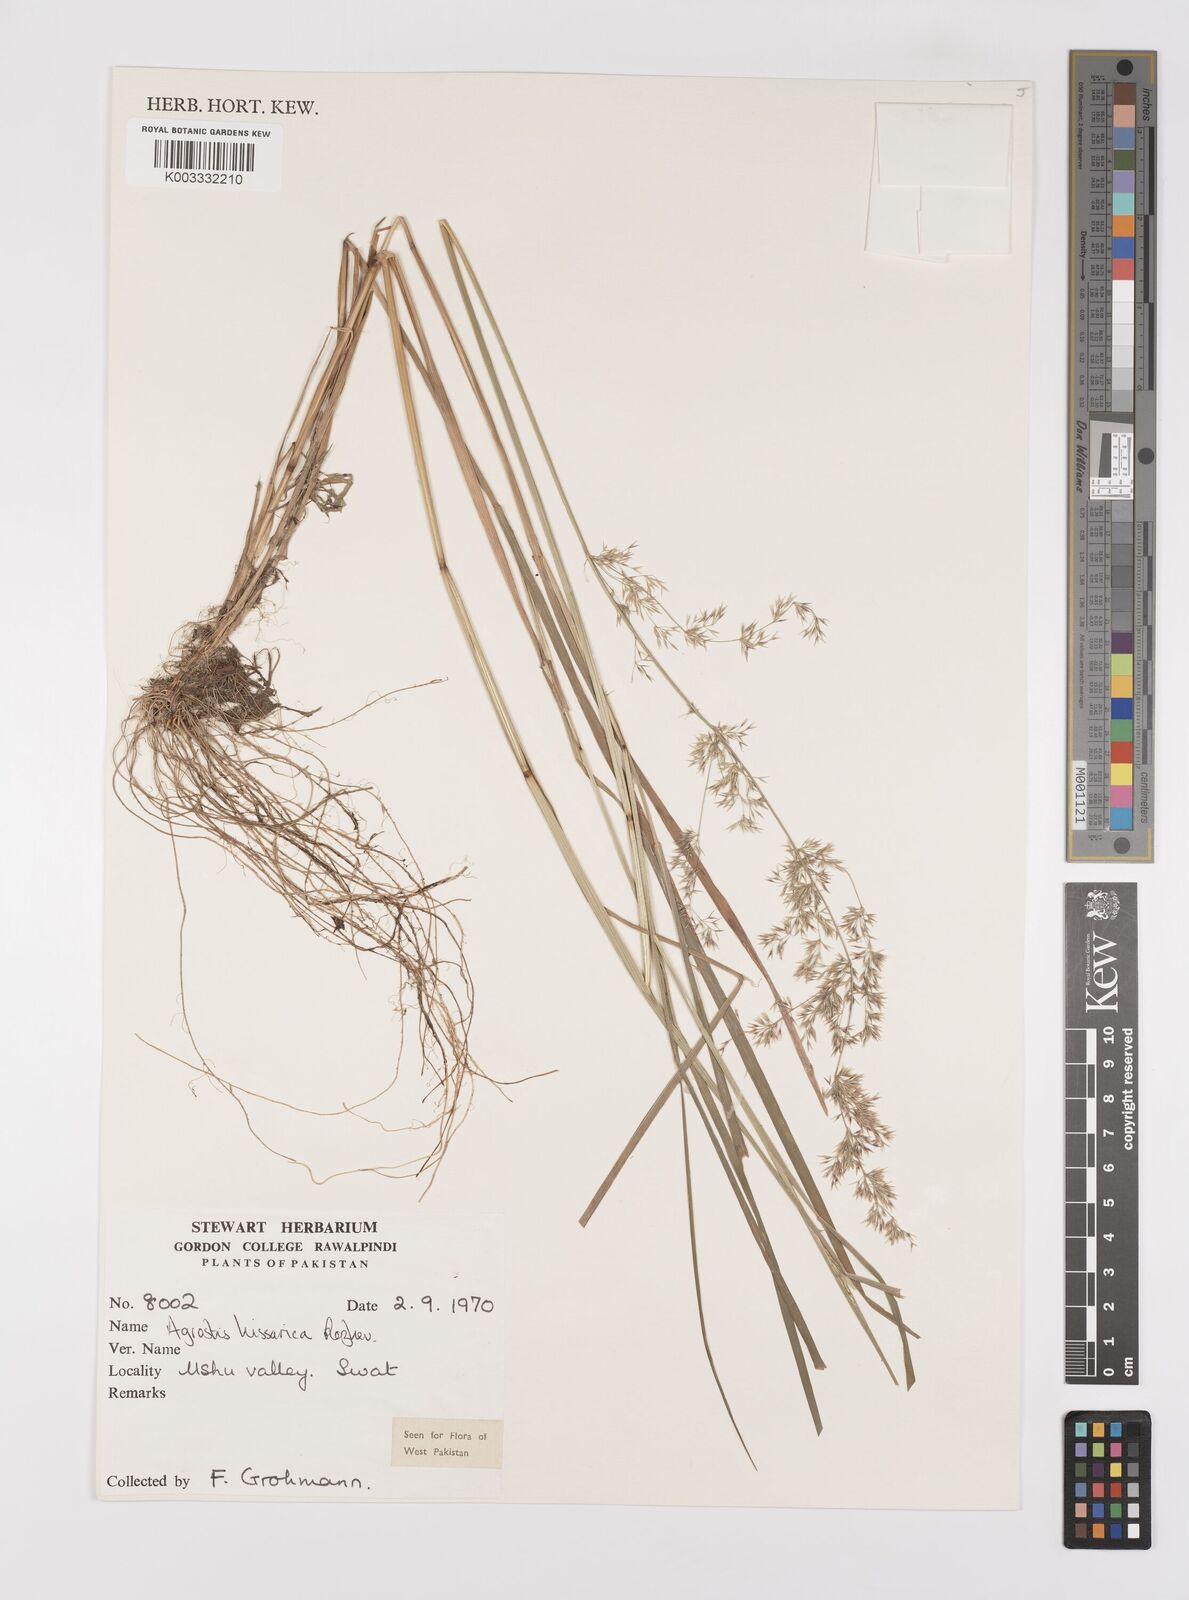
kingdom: Plantae
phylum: Tracheophyta
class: Liliopsida
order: Poales
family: Poaceae
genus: Polypogon
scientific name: Polypogon hissaricus
